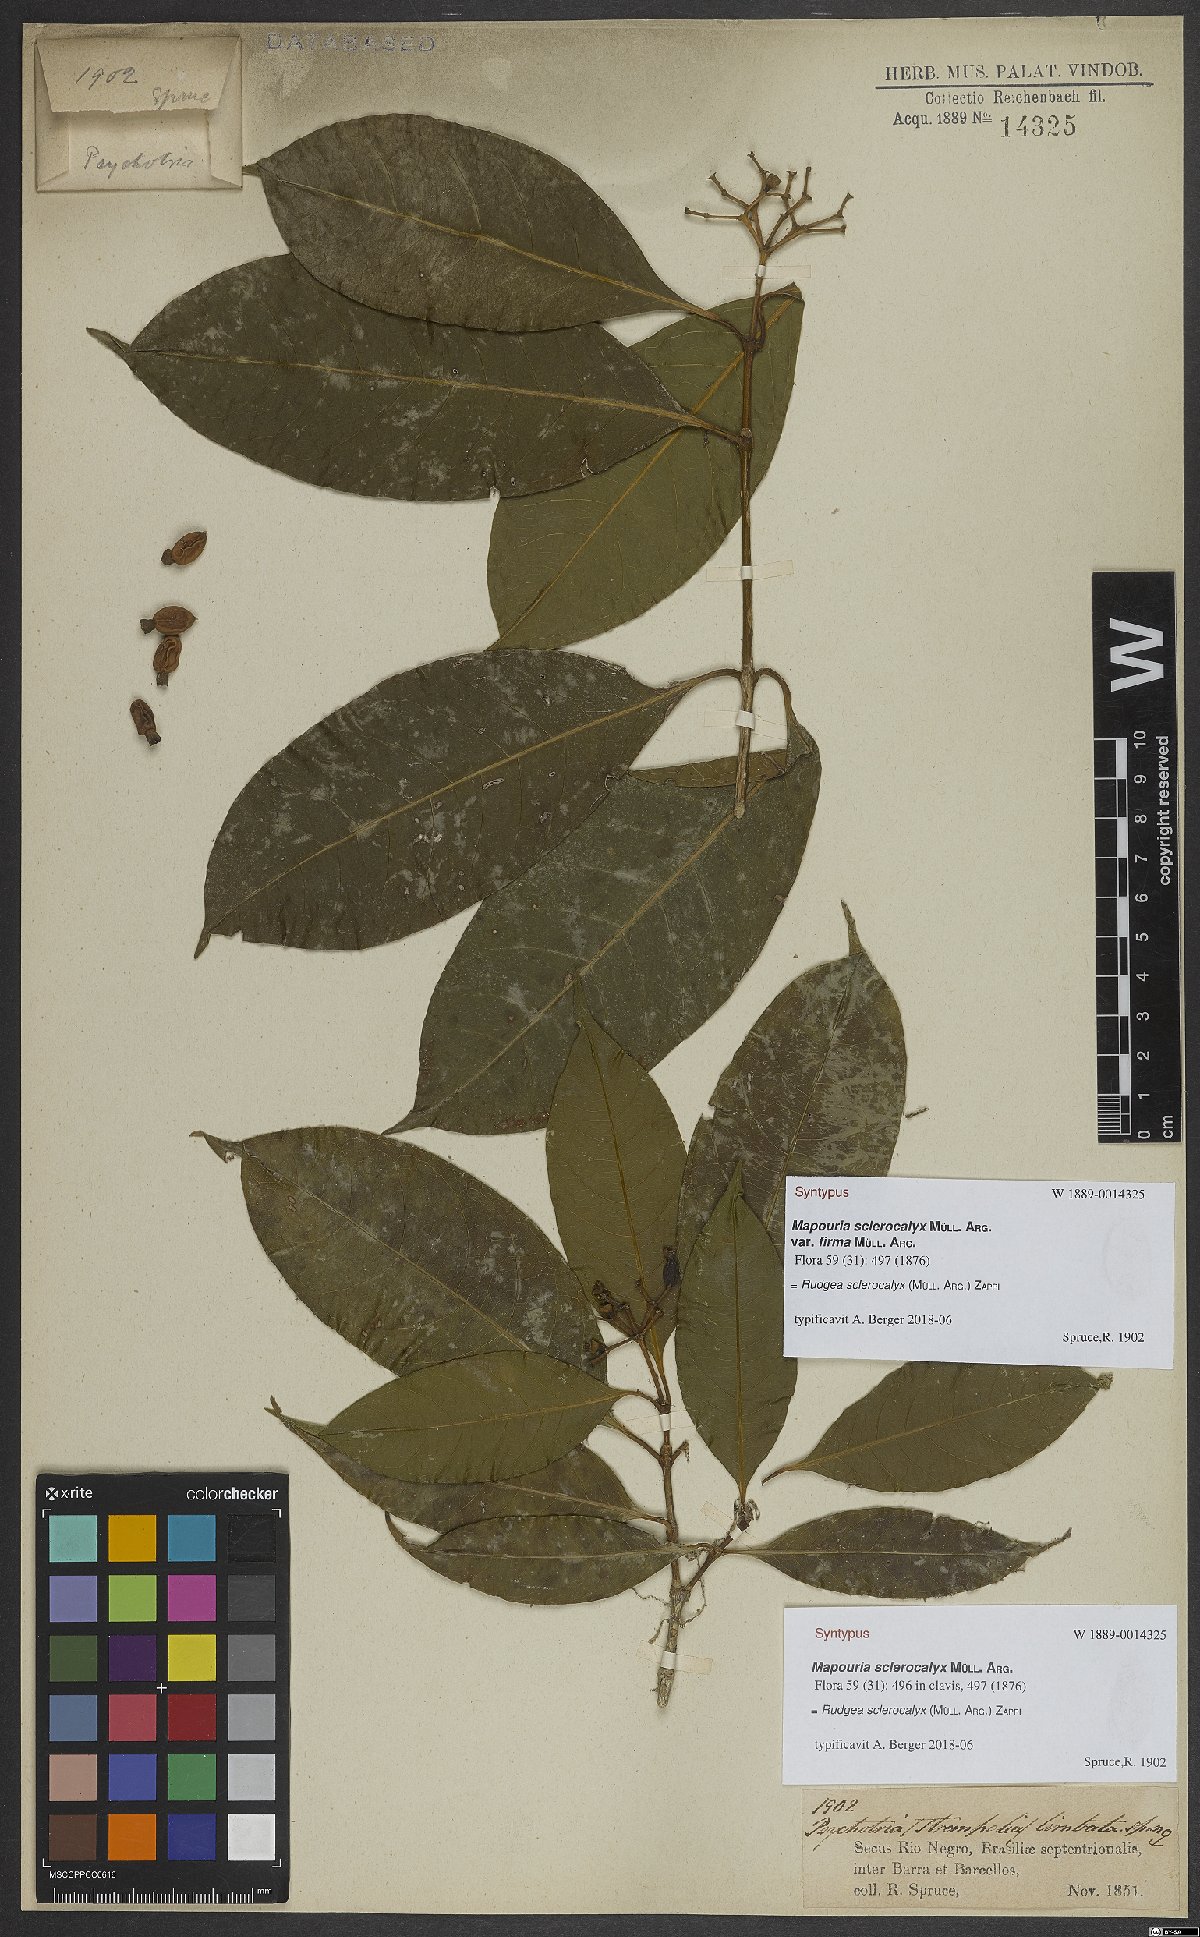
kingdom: Plantae
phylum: Tracheophyta
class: Magnoliopsida
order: Gentianales
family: Rubiaceae
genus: Rudgea
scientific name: Rudgea sclerocalyx
